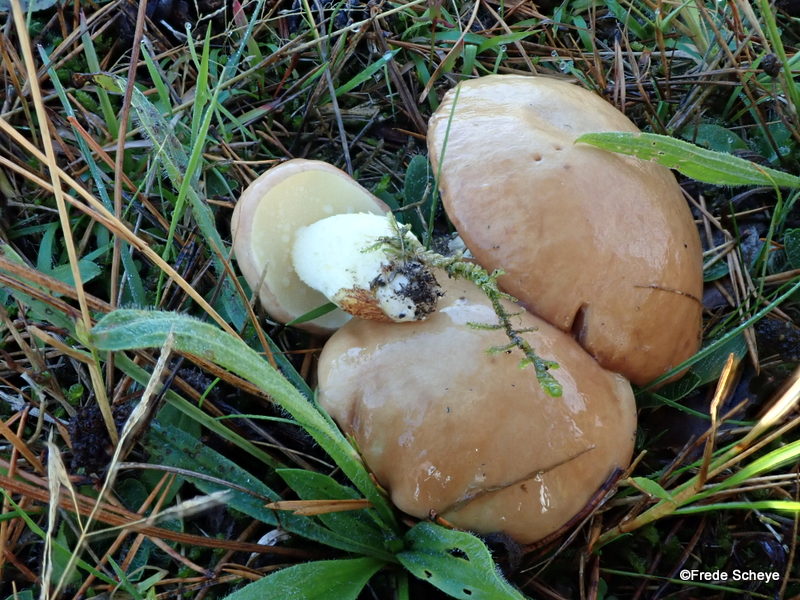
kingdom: Fungi
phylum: Basidiomycota
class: Agaricomycetes
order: Boletales
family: Suillaceae
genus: Suillus
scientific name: Suillus granulatus
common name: kornet slimrørhat
